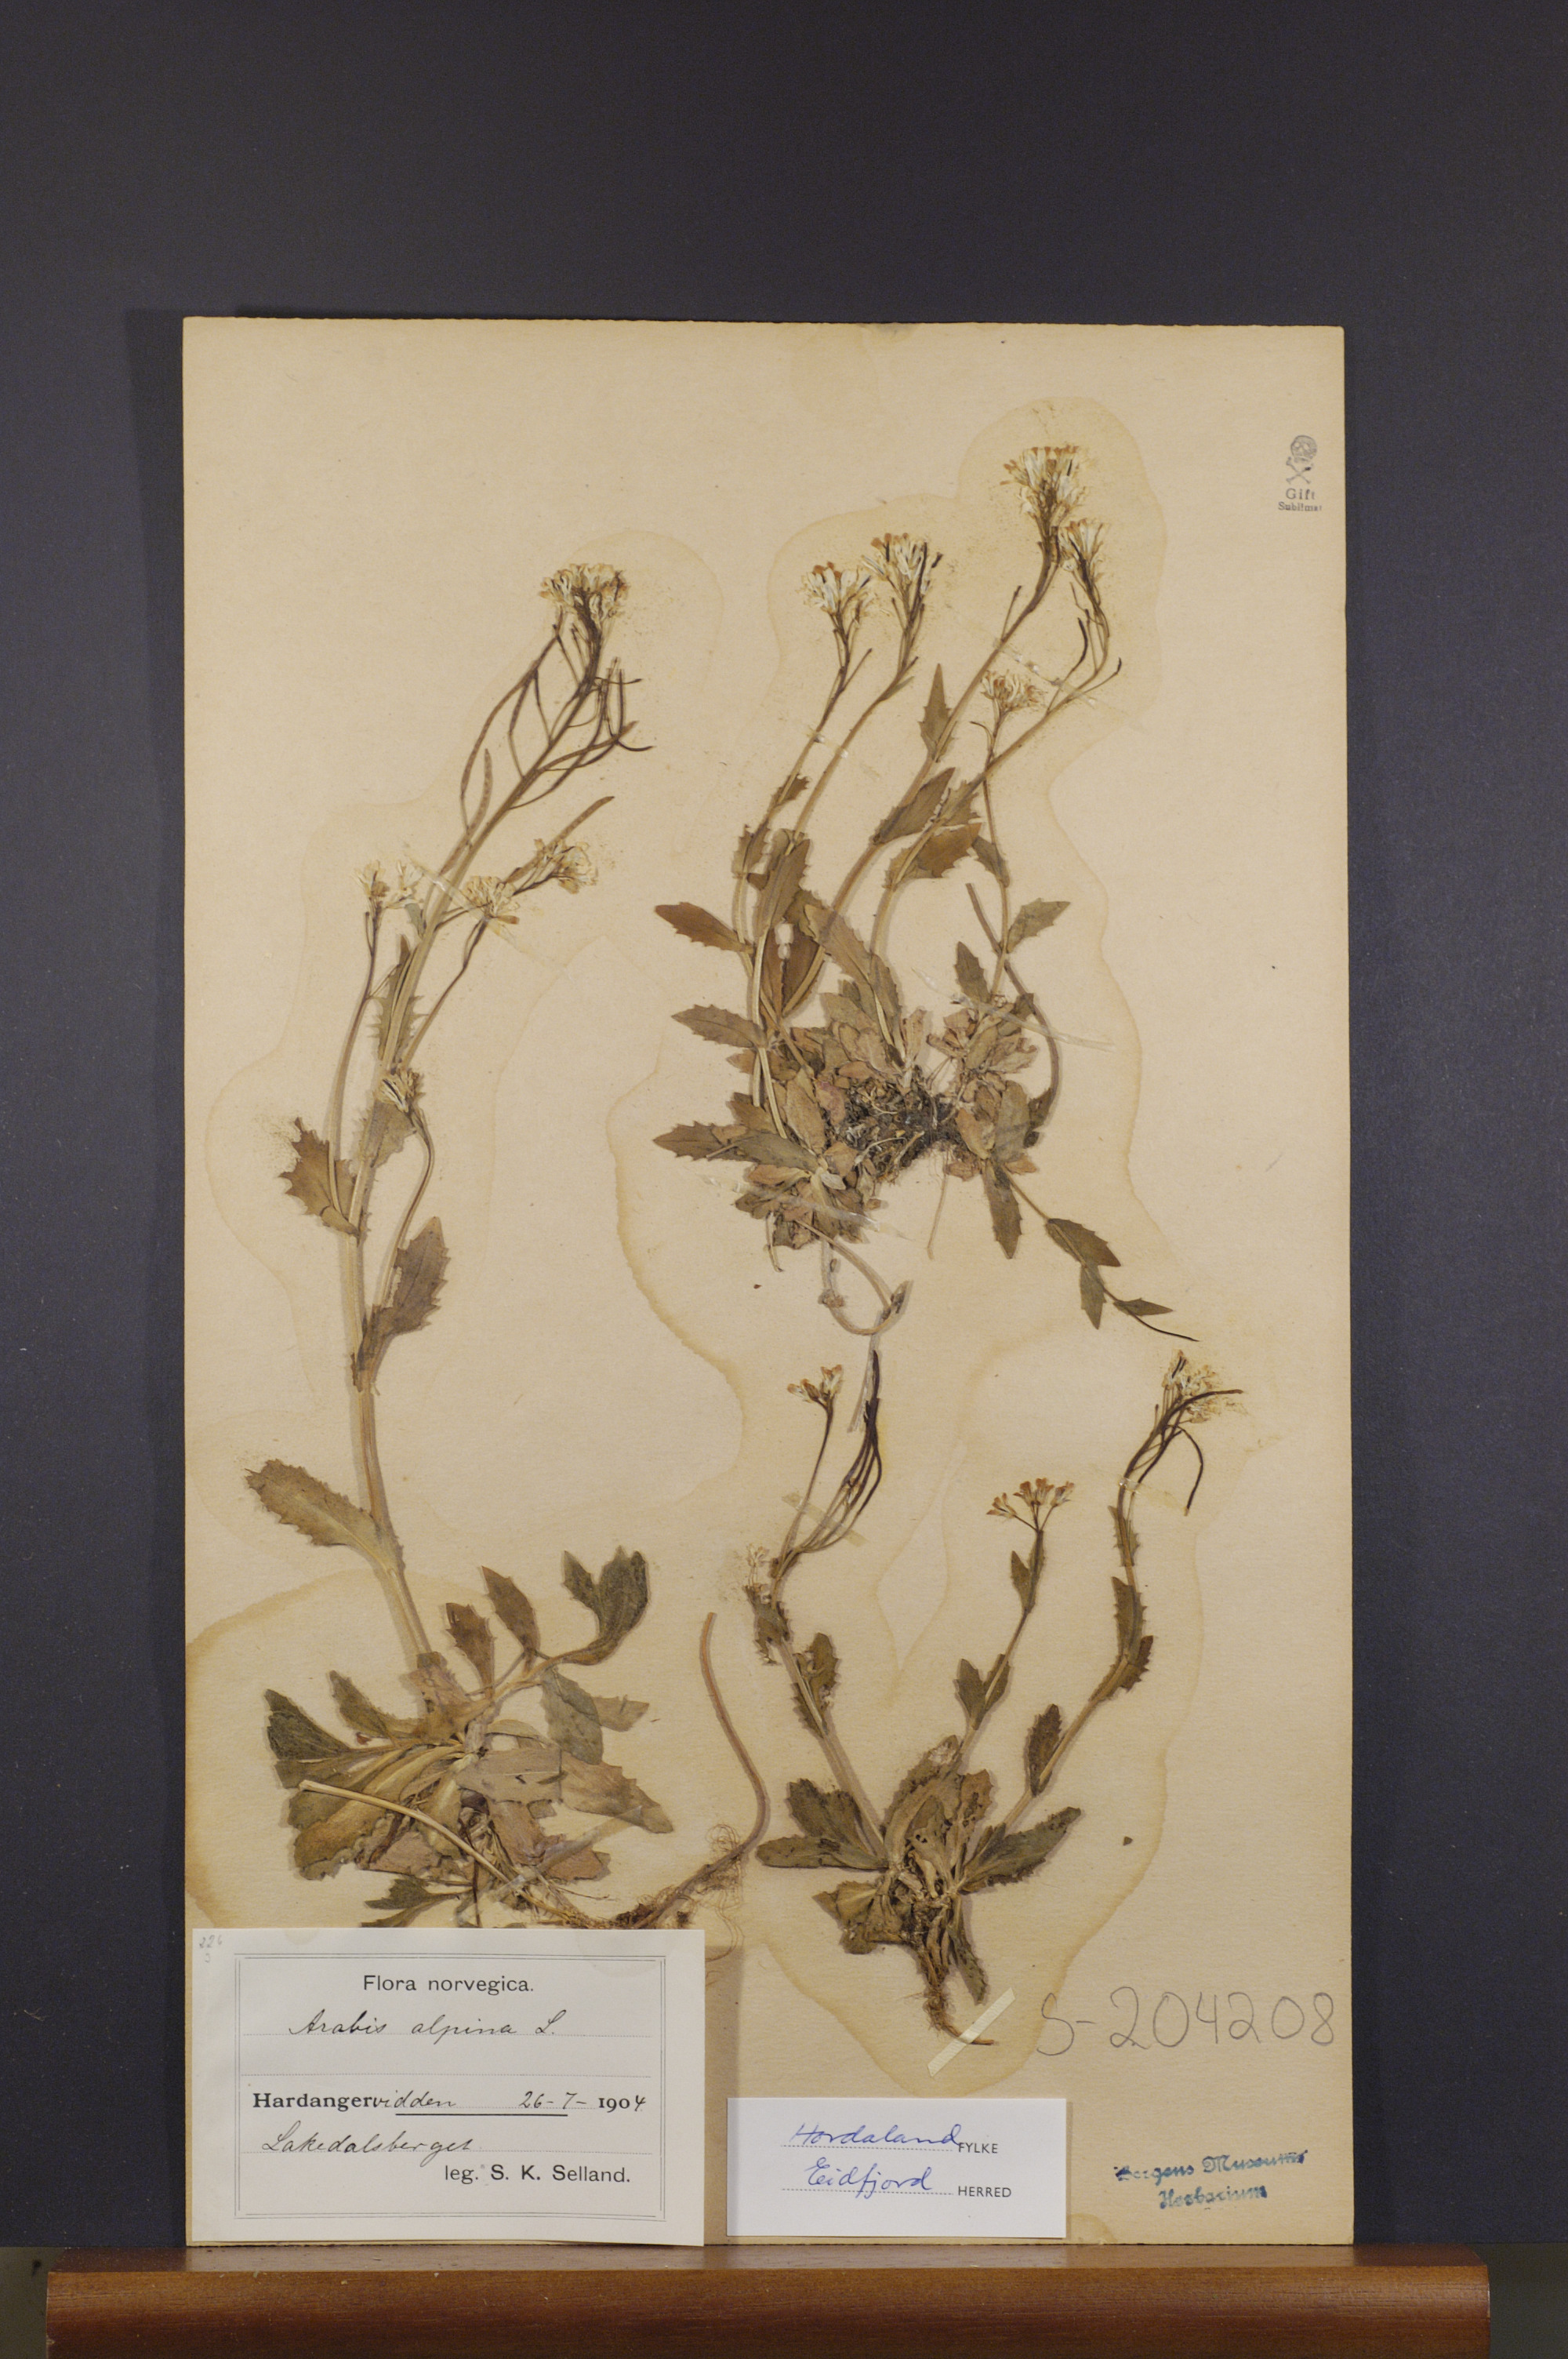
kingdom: Plantae
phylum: Tracheophyta
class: Magnoliopsida
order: Brassicales
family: Brassicaceae
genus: Arabis
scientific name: Arabis alpina
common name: Alpine rock-cress
